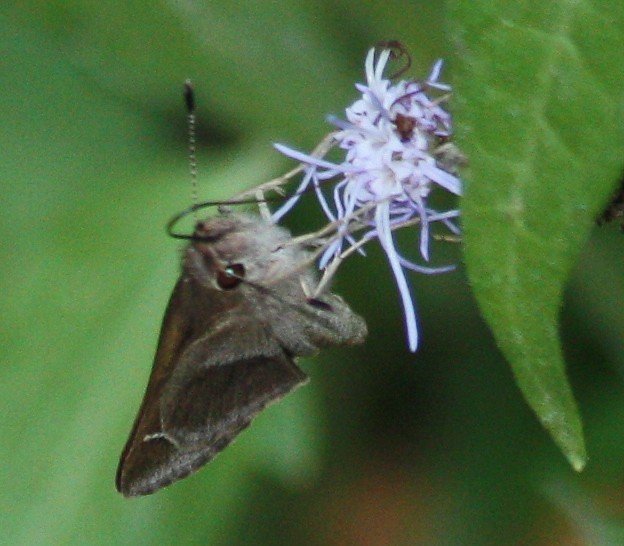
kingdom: Animalia
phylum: Arthropoda
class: Insecta
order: Lepidoptera
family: Hesperiidae
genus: Lerodea
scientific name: Lerodea arabus
